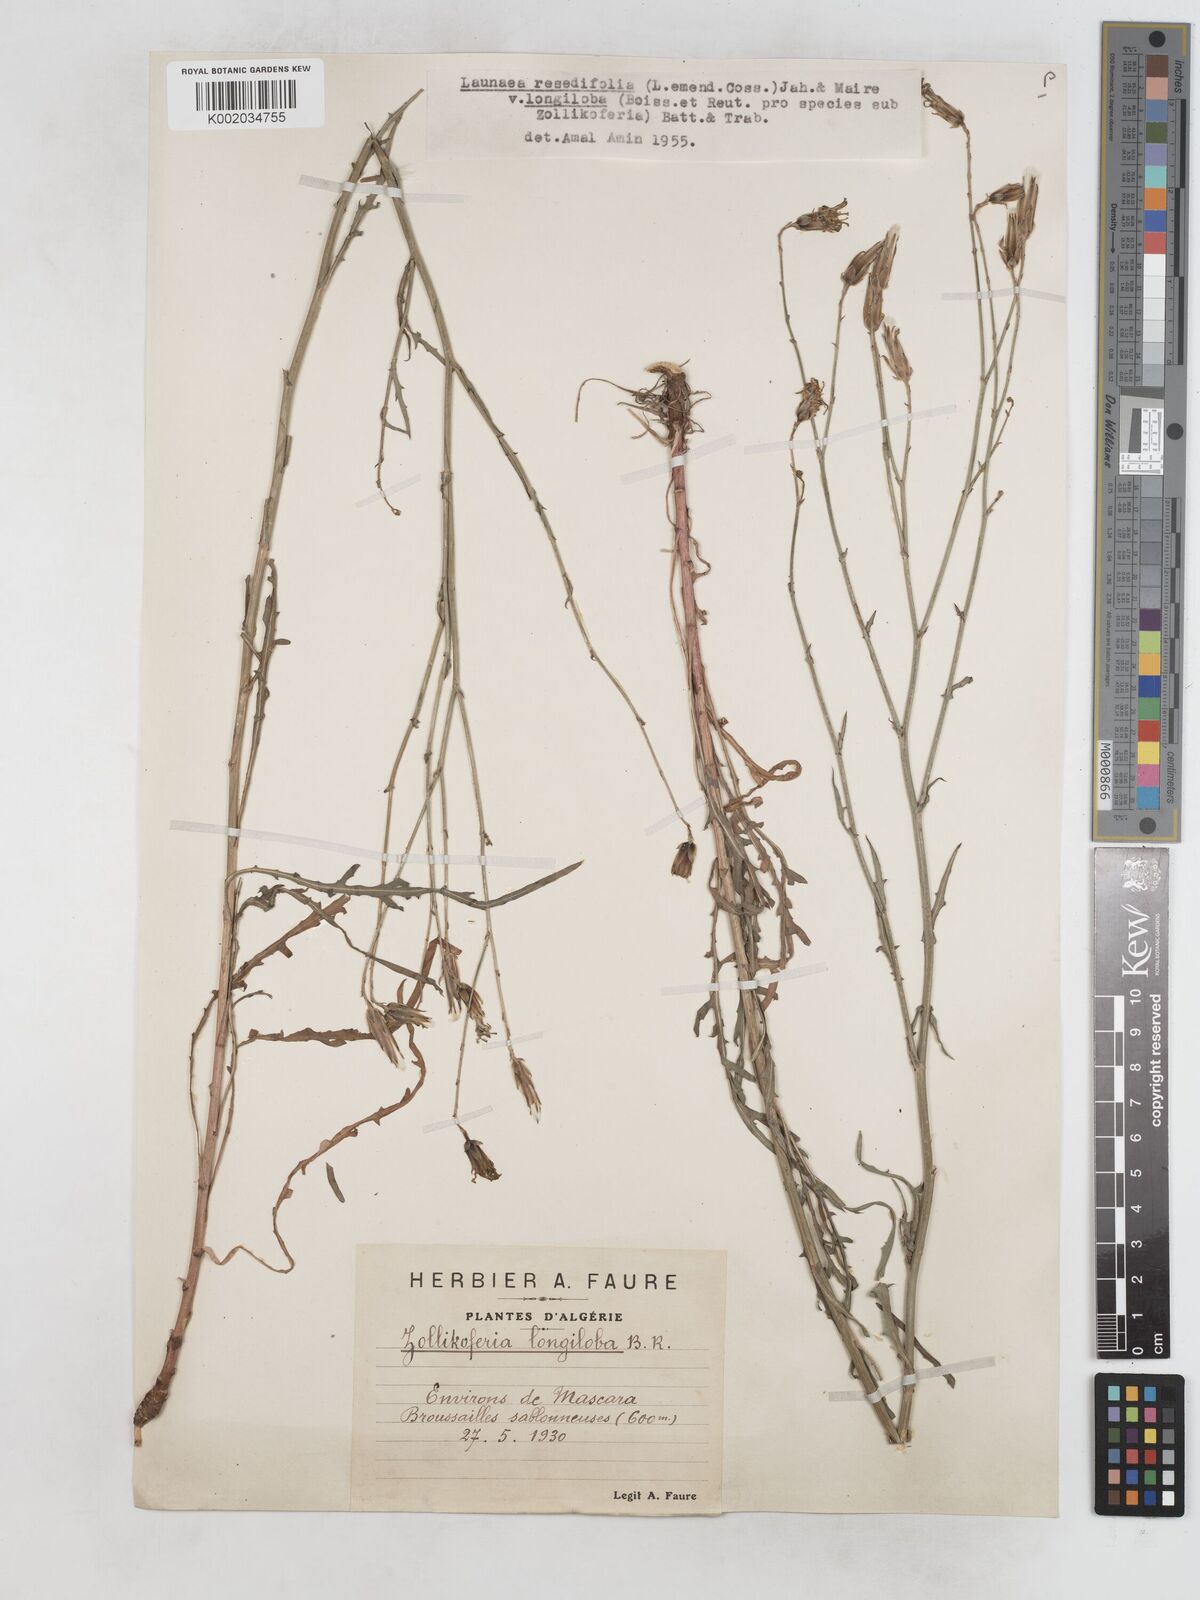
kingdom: Plantae
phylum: Tracheophyta
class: Magnoliopsida
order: Asterales
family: Asteraceae
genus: Launaea
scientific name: Launaea
